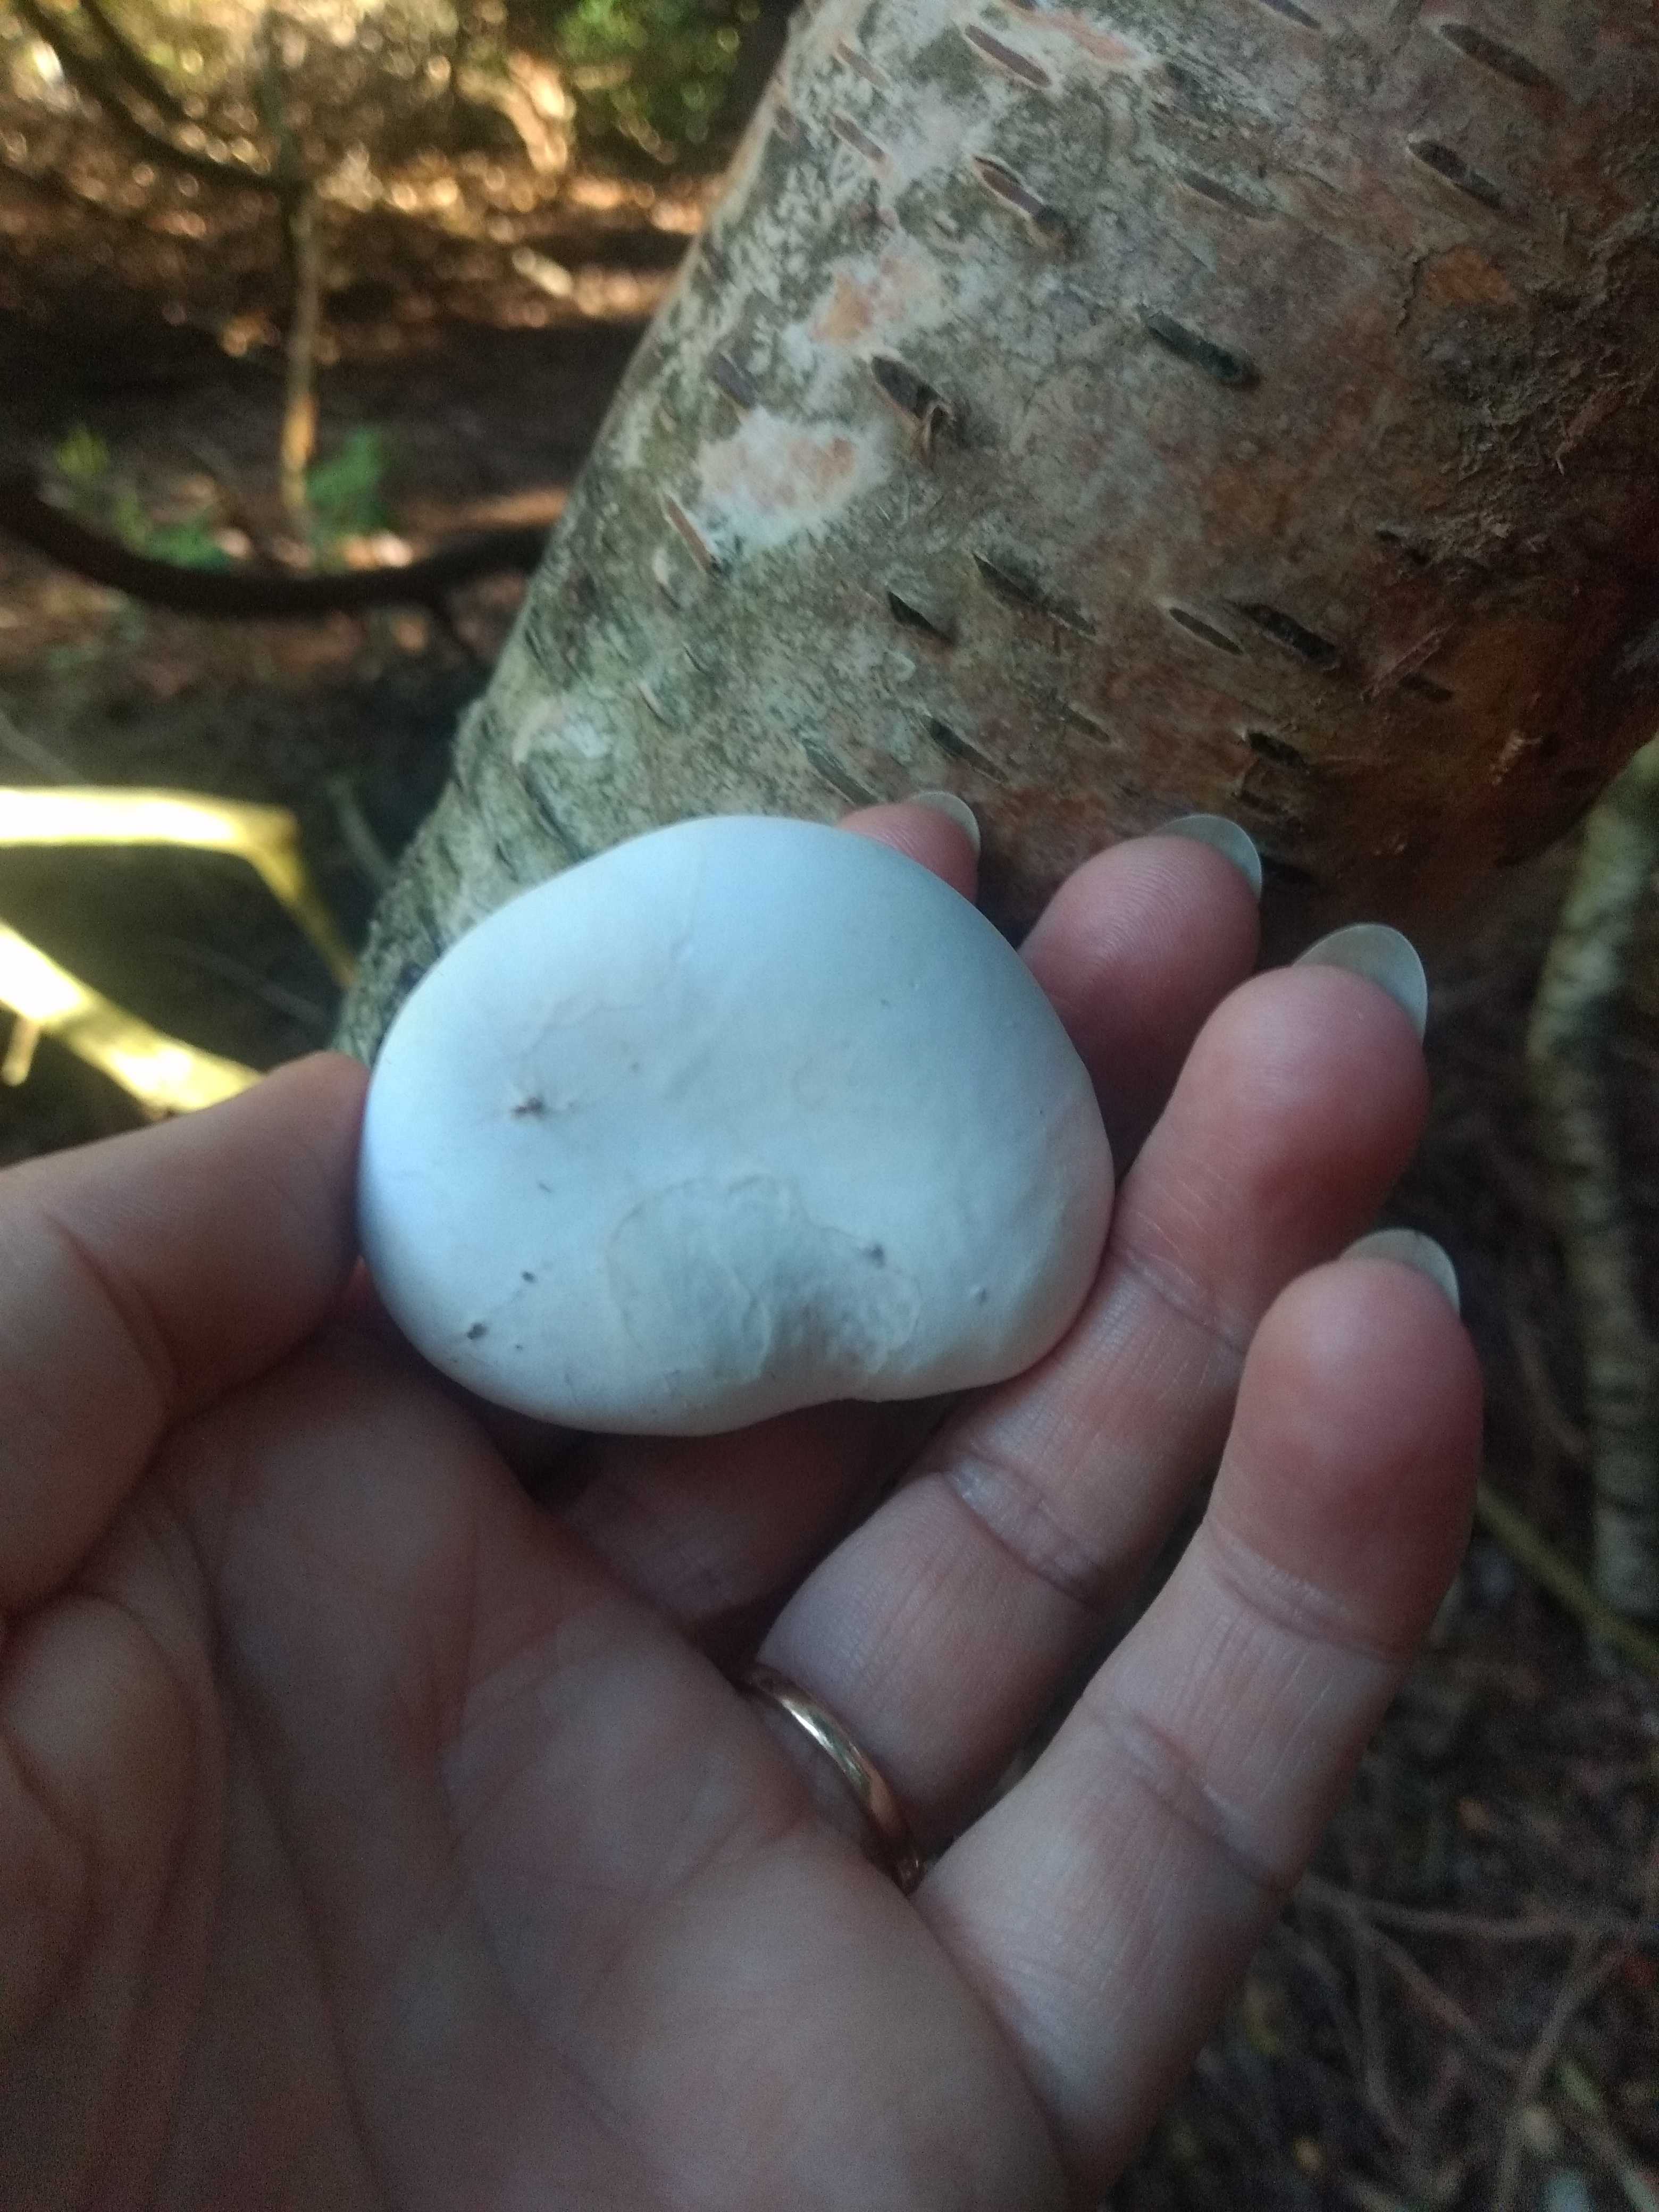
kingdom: Fungi
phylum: Basidiomycota
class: Agaricomycetes
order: Polyporales
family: Fomitopsidaceae
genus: Fomitopsis
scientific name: Fomitopsis betulina
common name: birkeporesvamp
